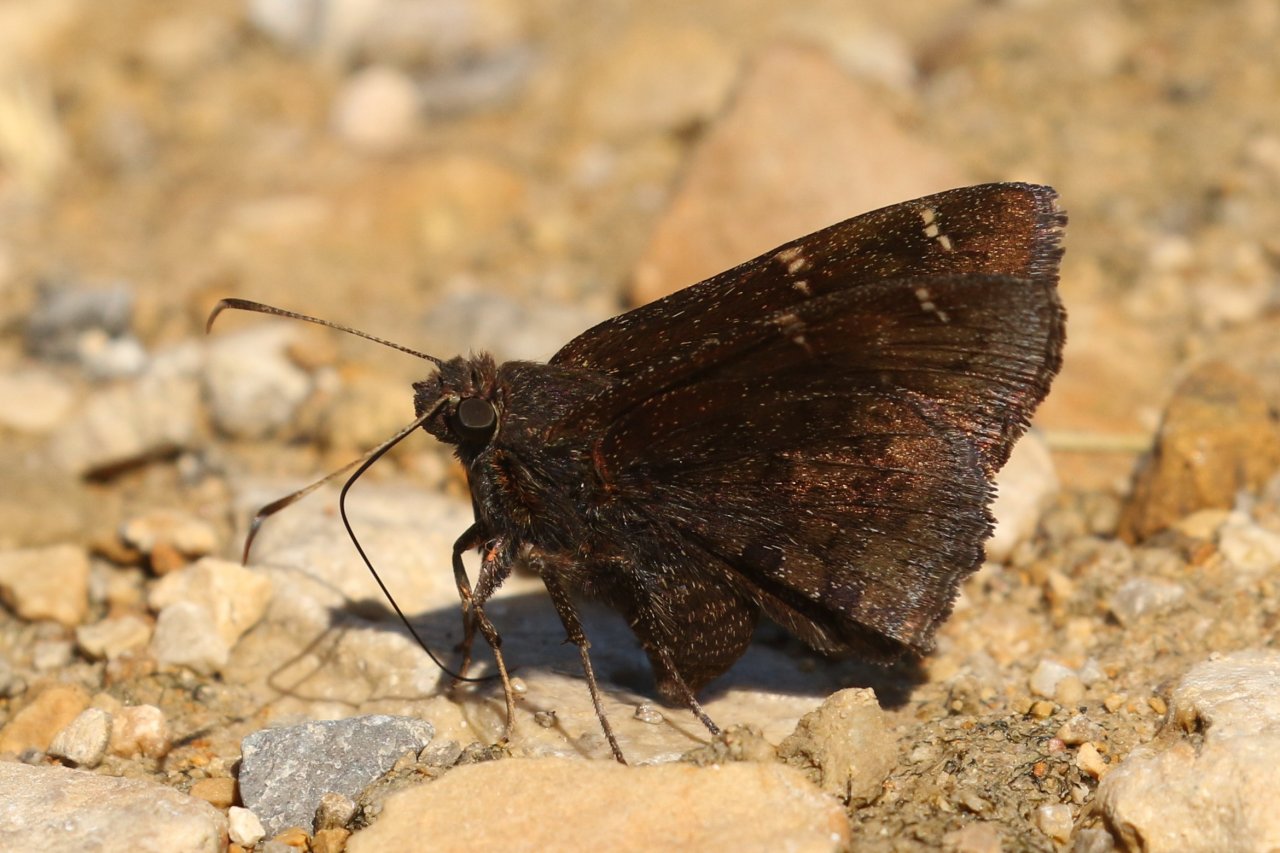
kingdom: Animalia
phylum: Arthropoda
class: Insecta
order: Lepidoptera
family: Hesperiidae
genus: Autochton
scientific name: Autochton
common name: Northern Cloudywing
